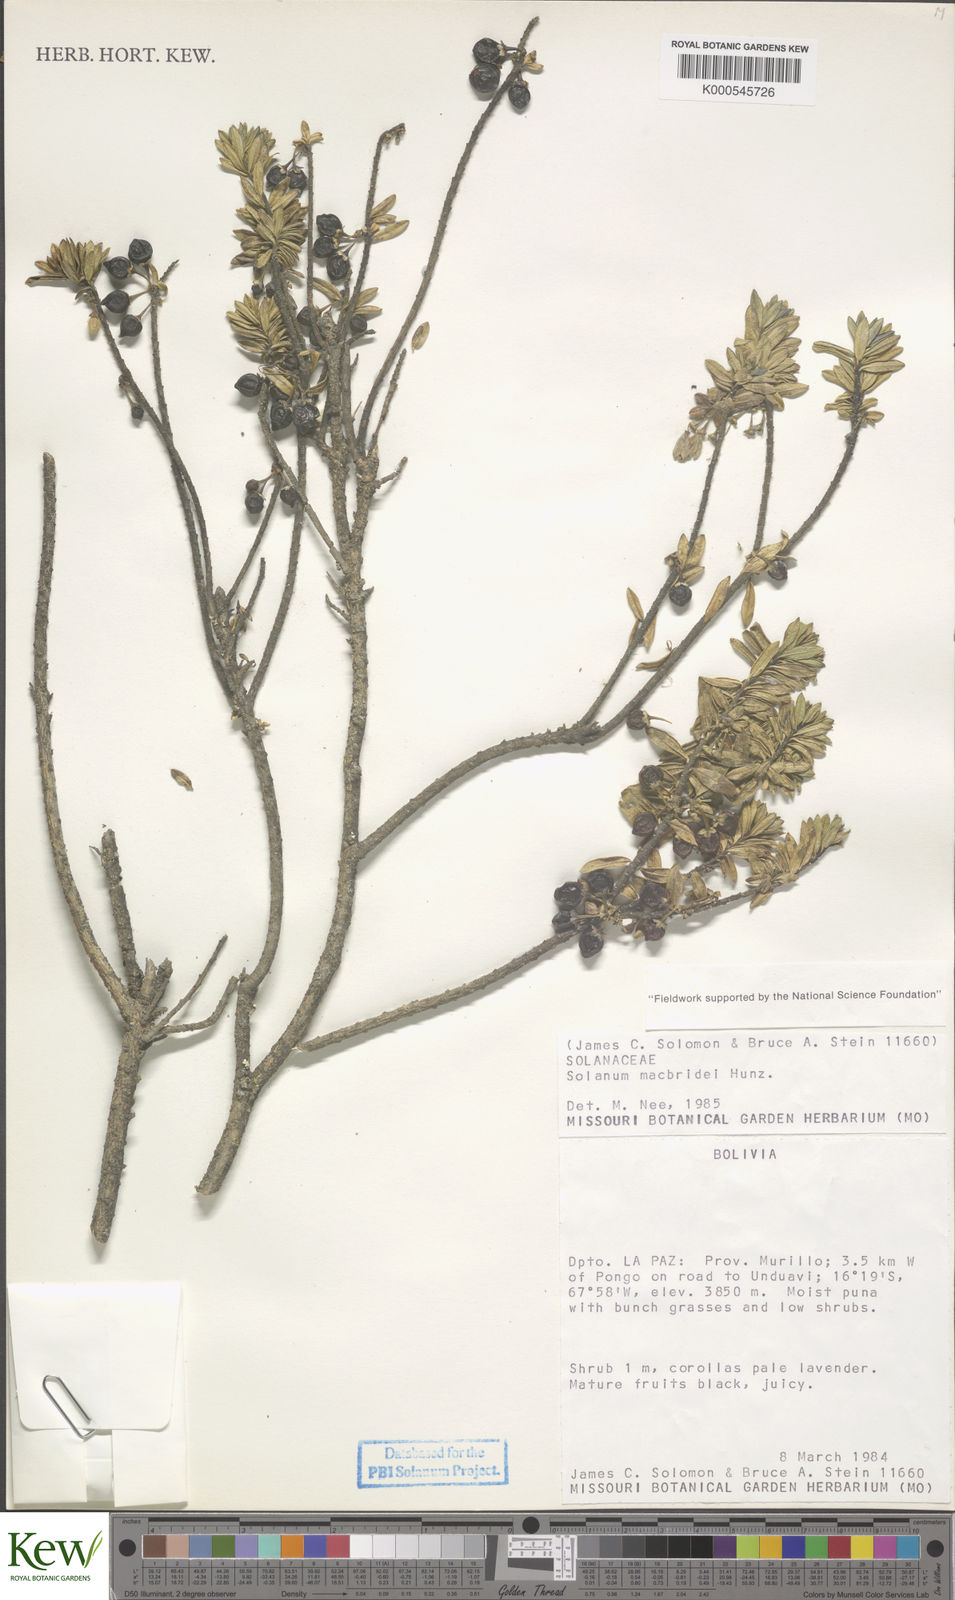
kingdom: Plantae
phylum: Tracheophyta
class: Magnoliopsida
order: Solanales
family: Solanaceae
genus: Solanum
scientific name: Solanum macbridei
